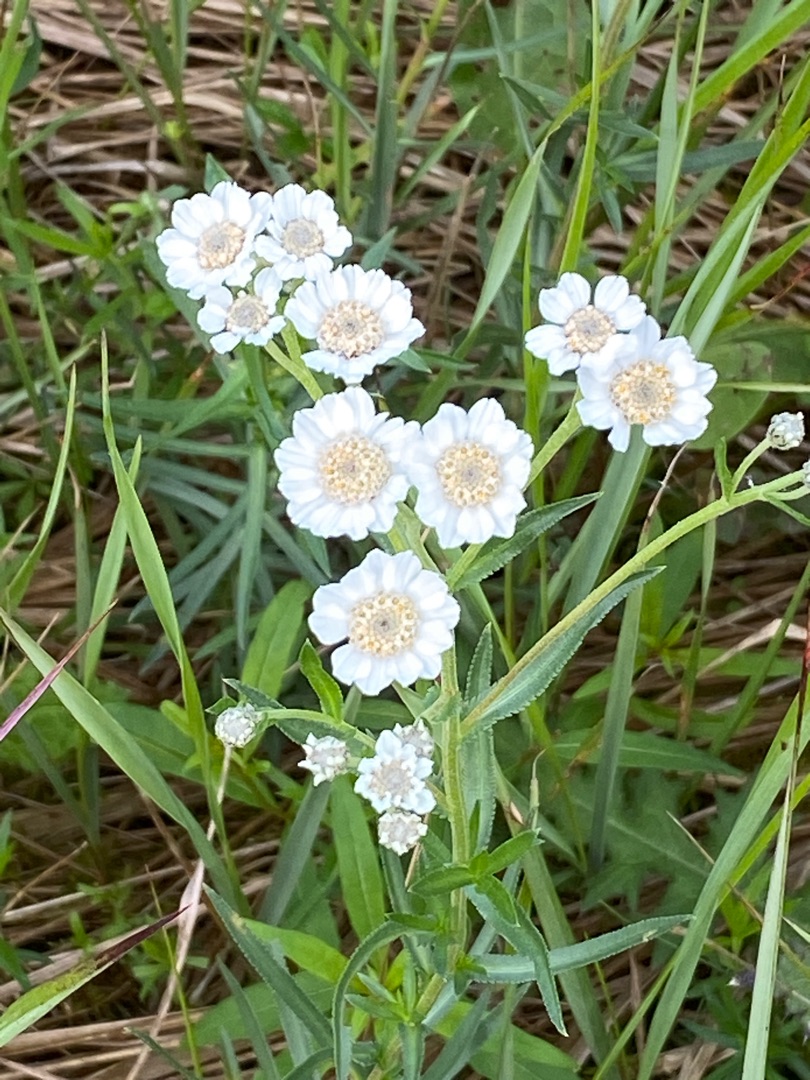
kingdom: Plantae
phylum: Tracheophyta
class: Magnoliopsida
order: Asterales
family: Asteraceae
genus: Achillea
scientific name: Achillea ptarmica
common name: Nyse-røllike
